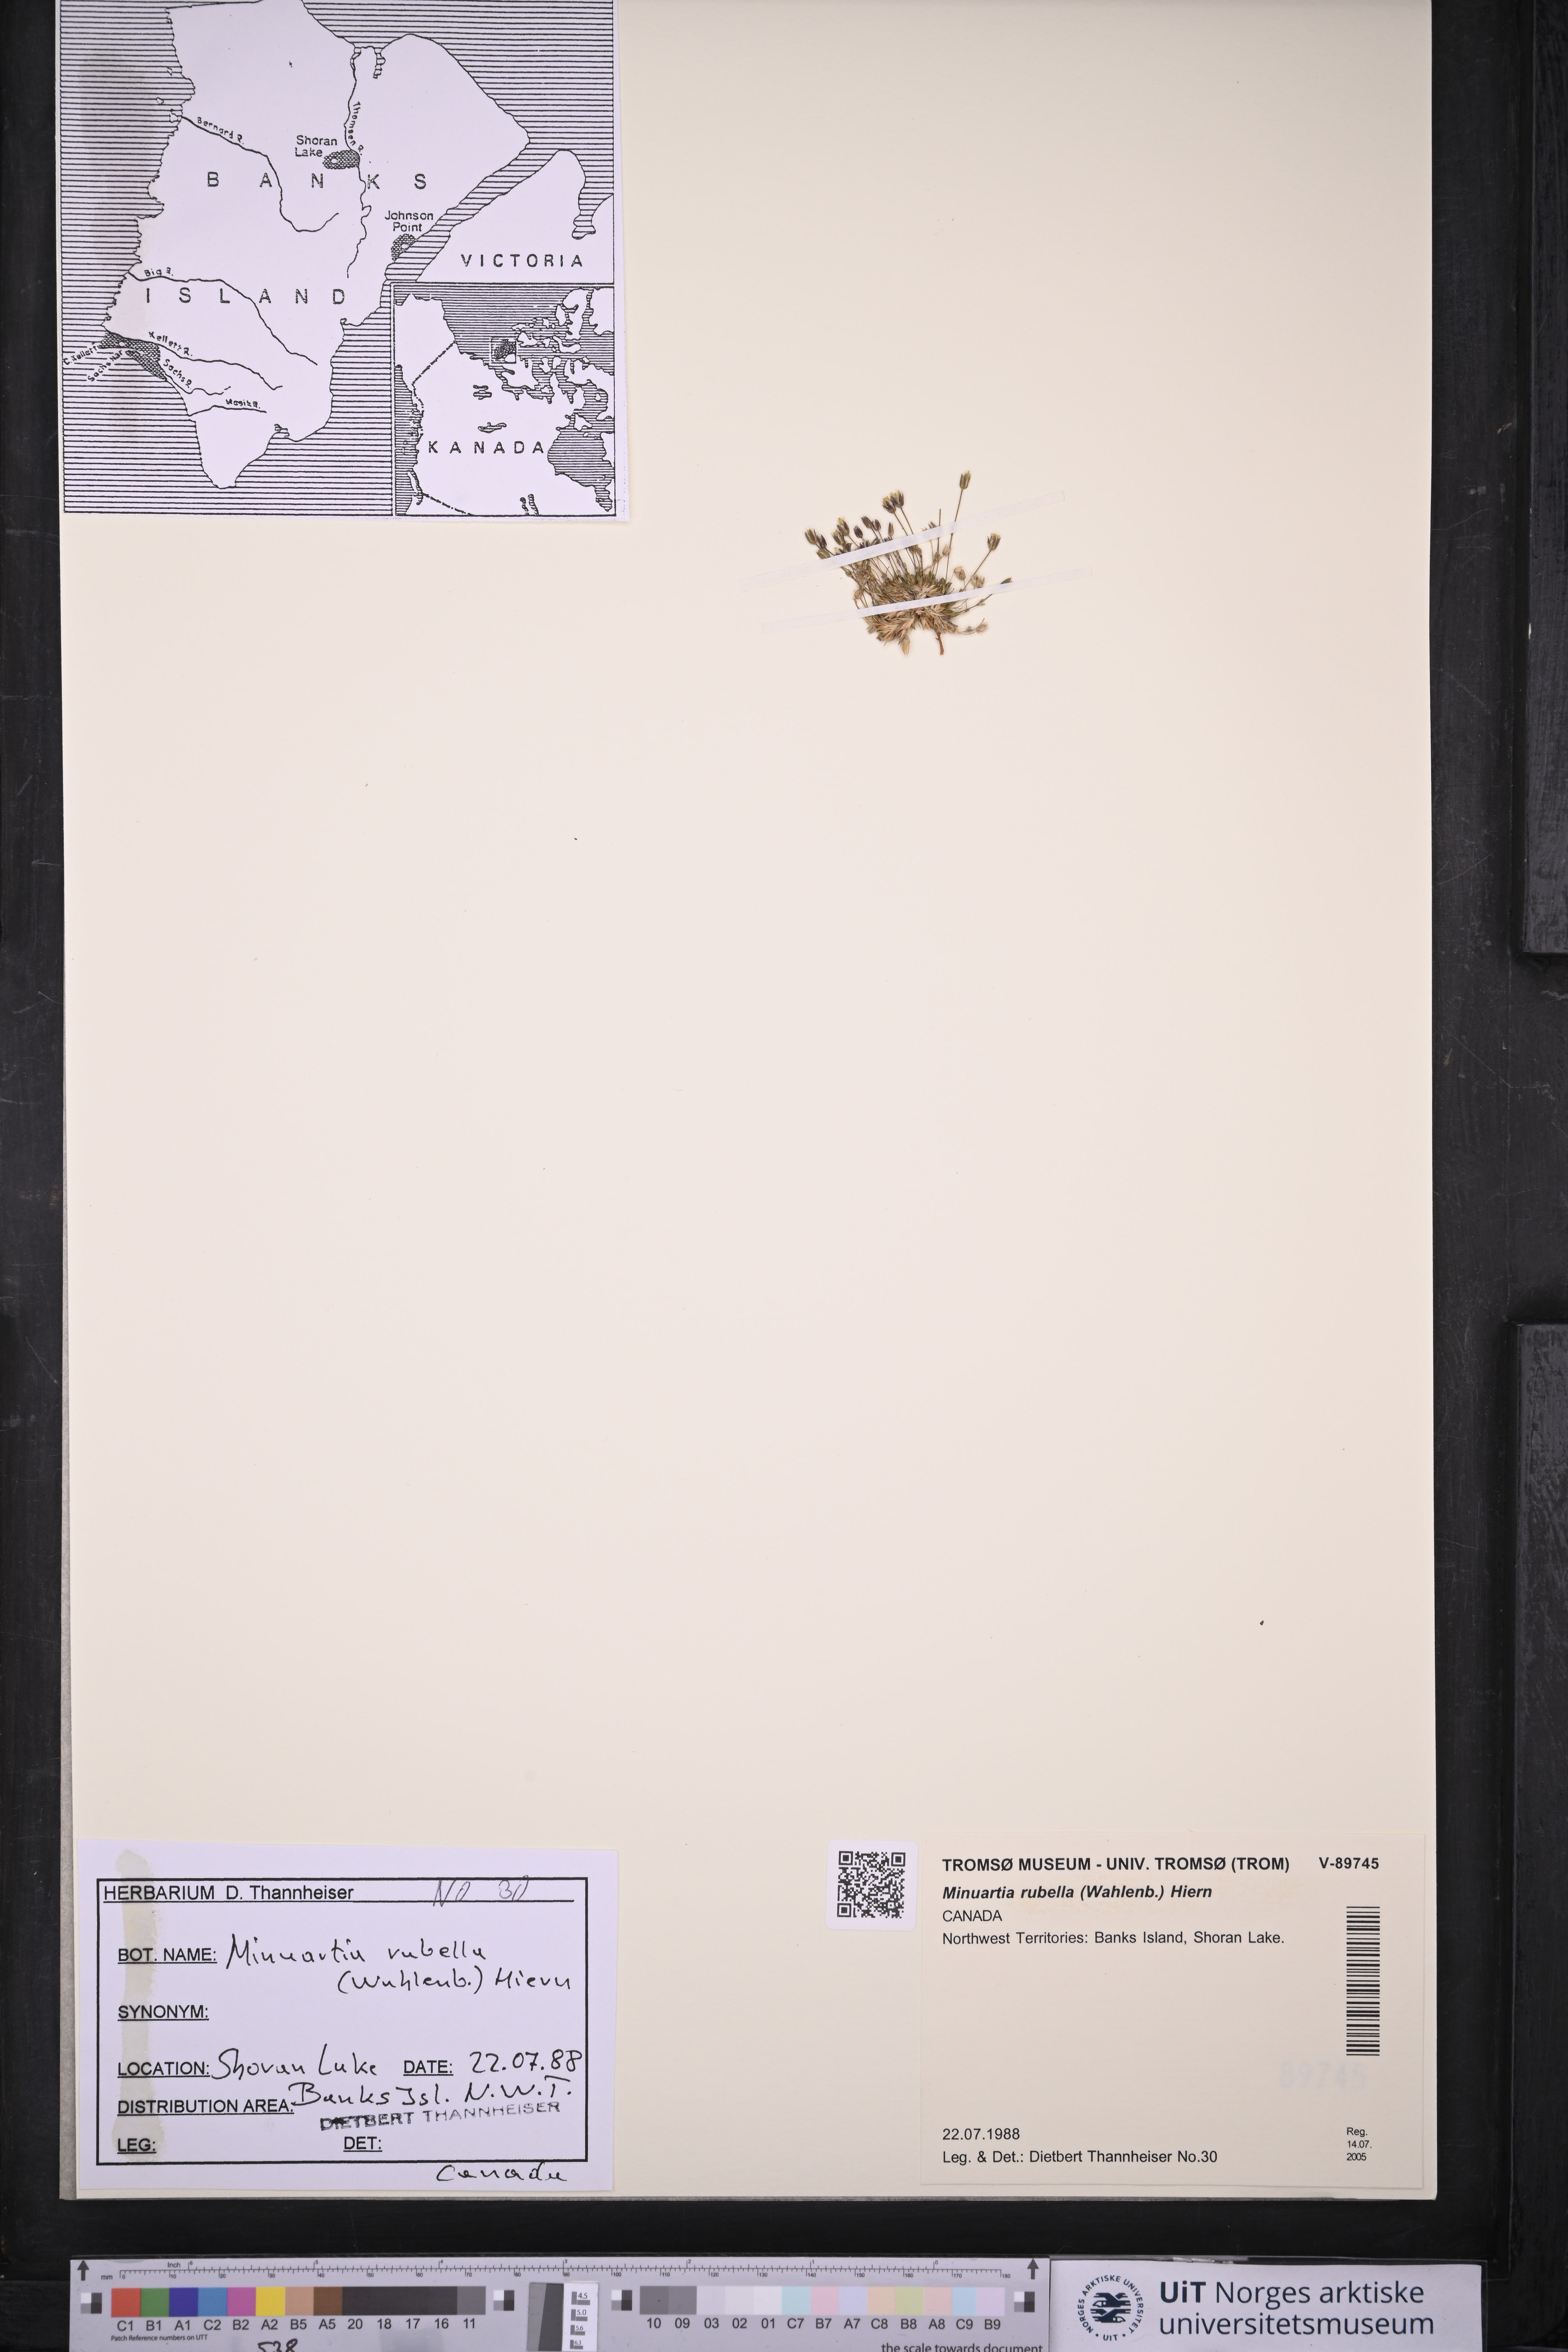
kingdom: Plantae
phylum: Tracheophyta
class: Magnoliopsida
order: Caryophyllales
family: Caryophyllaceae
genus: Sabulina
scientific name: Sabulina rubella
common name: Beautiful sandwort
